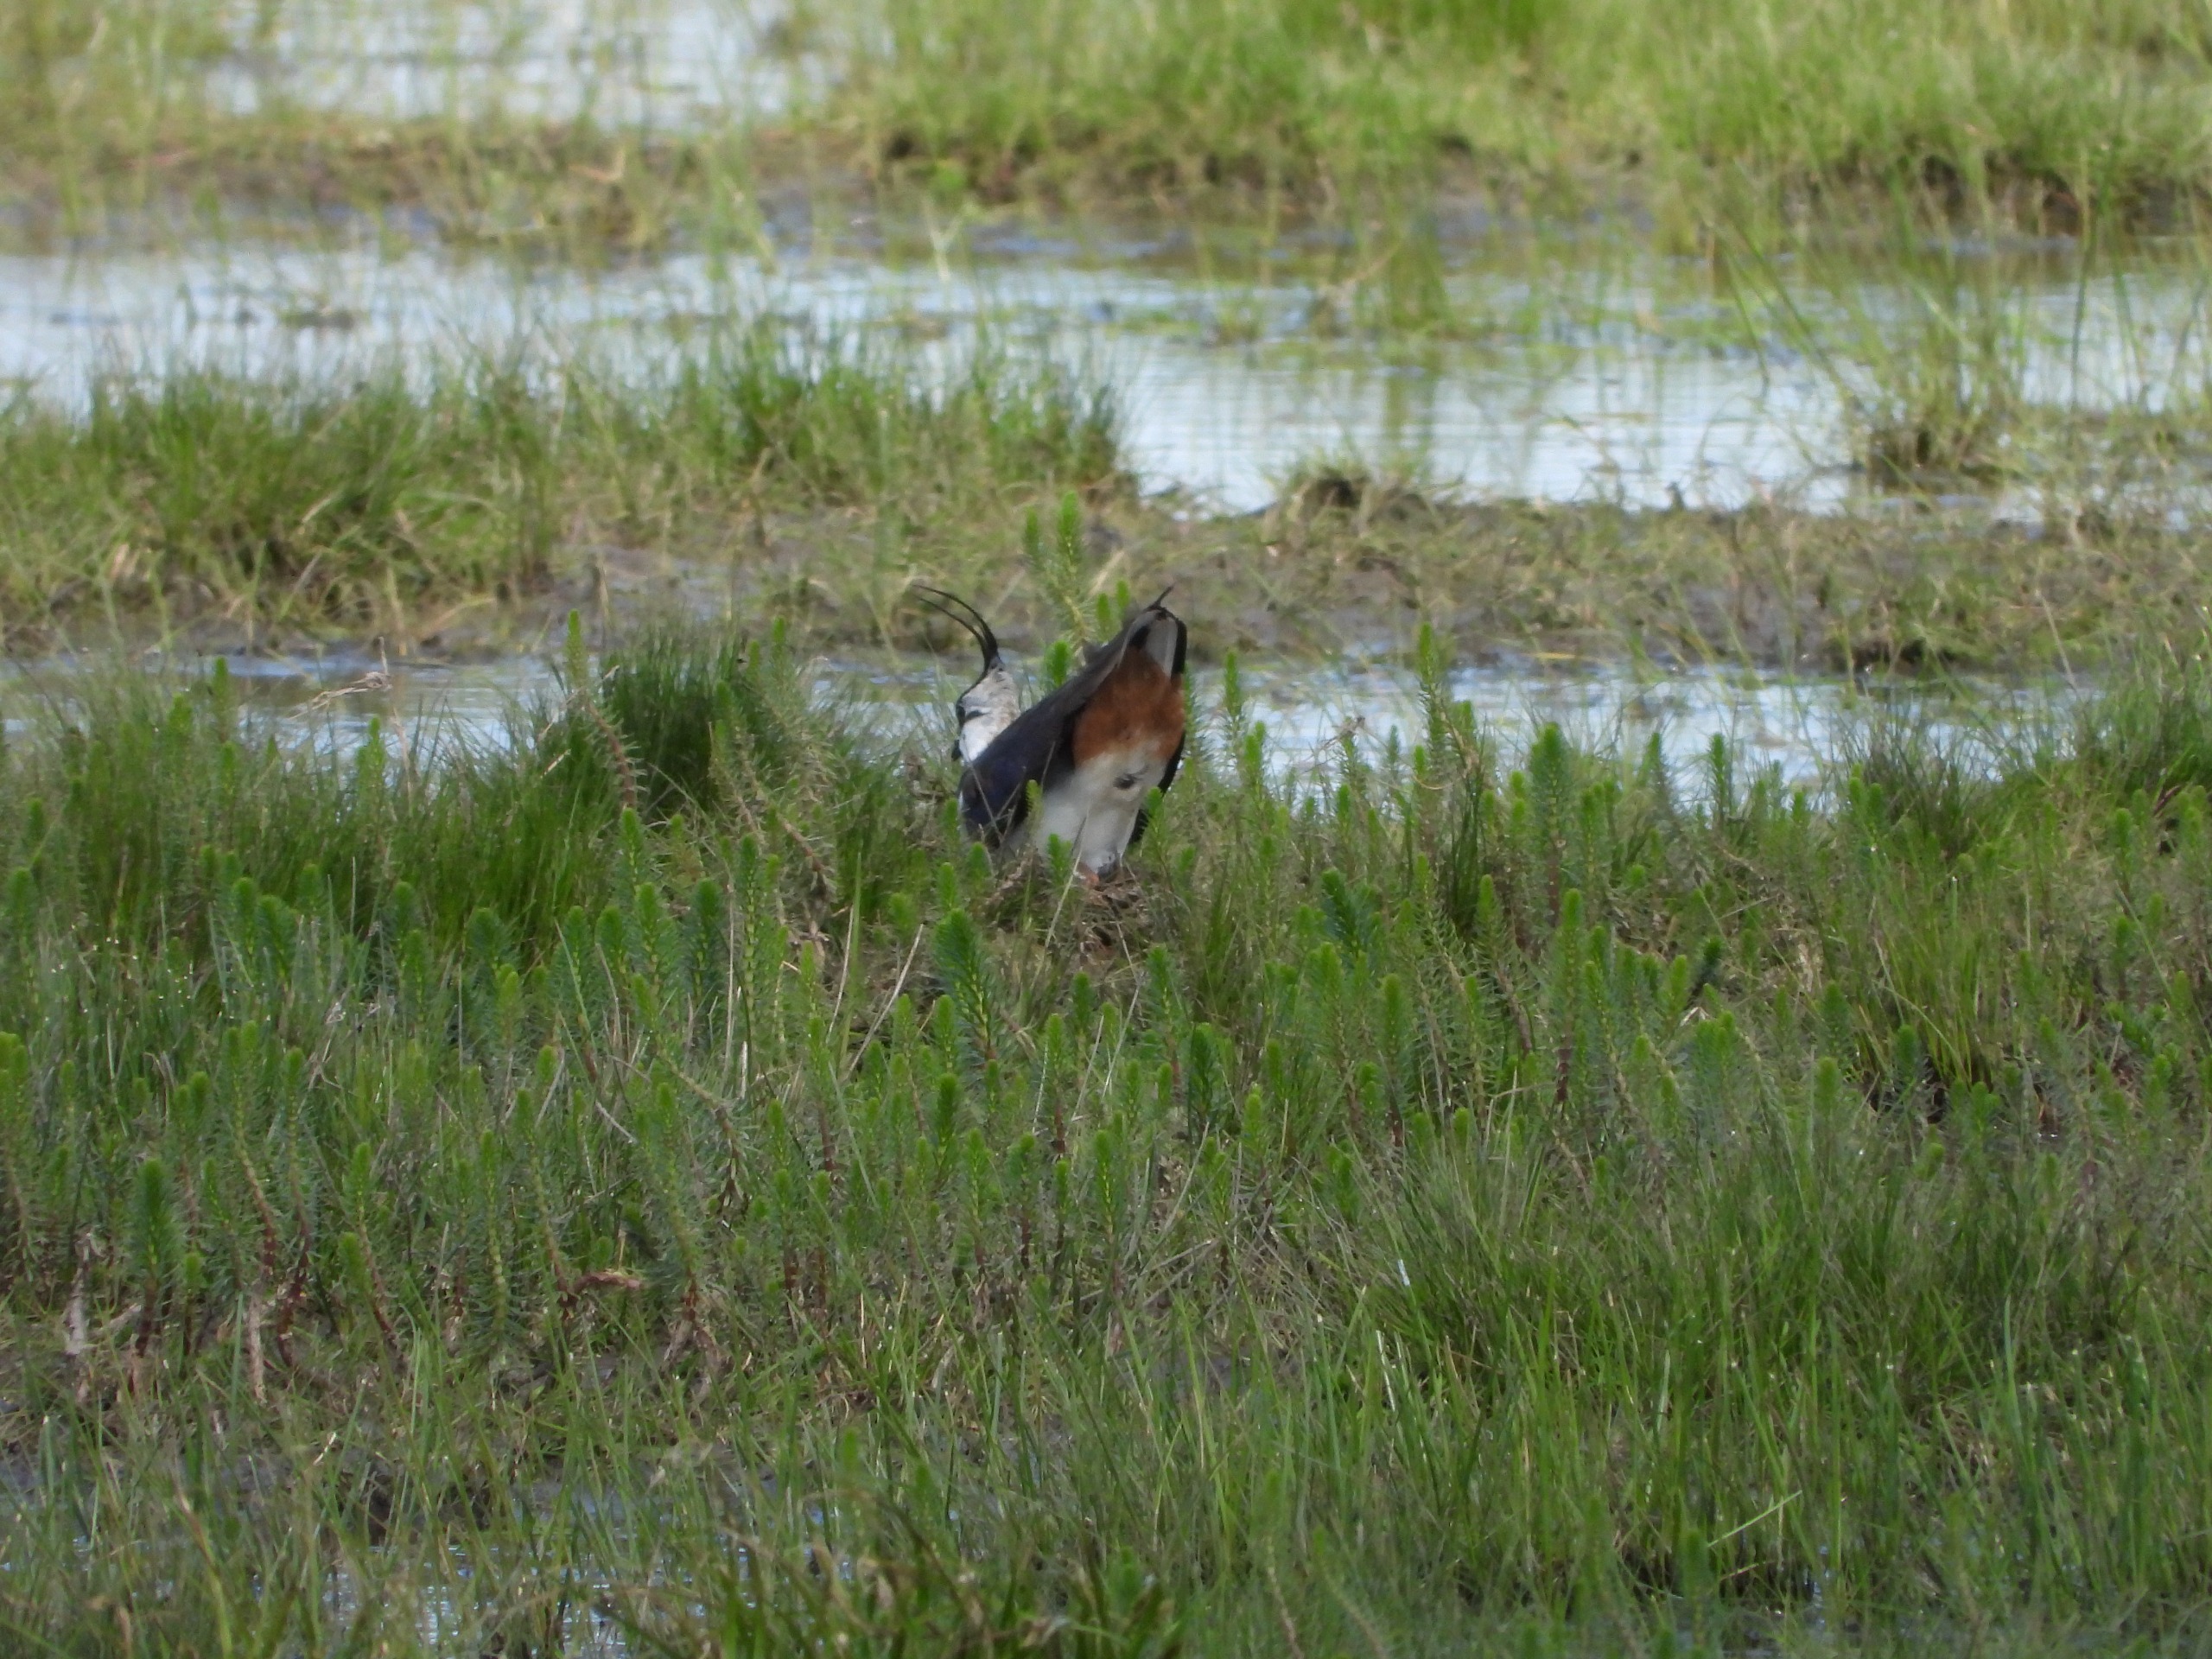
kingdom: Animalia
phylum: Chordata
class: Aves
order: Charadriiformes
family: Charadriidae
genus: Vanellus
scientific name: Vanellus vanellus
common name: Vibe
